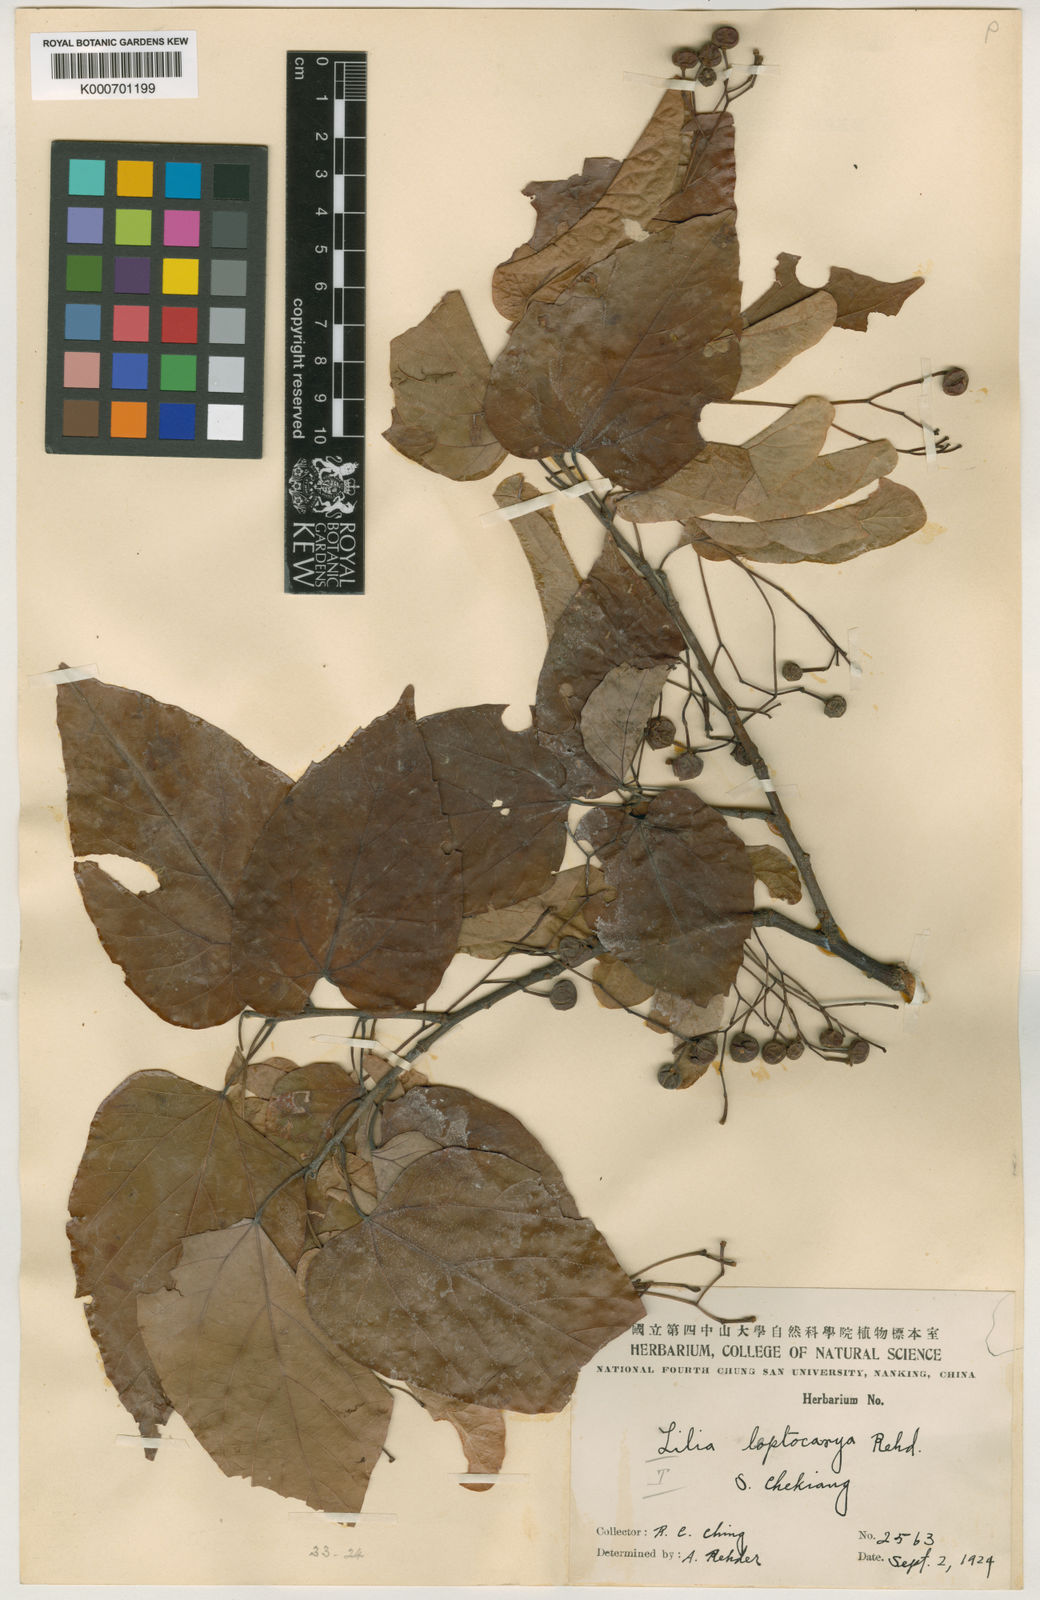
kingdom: Plantae
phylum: Tracheophyta
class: Magnoliopsida
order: Malvales
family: Malvaceae
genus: Tilia
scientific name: Tilia endochrysea
